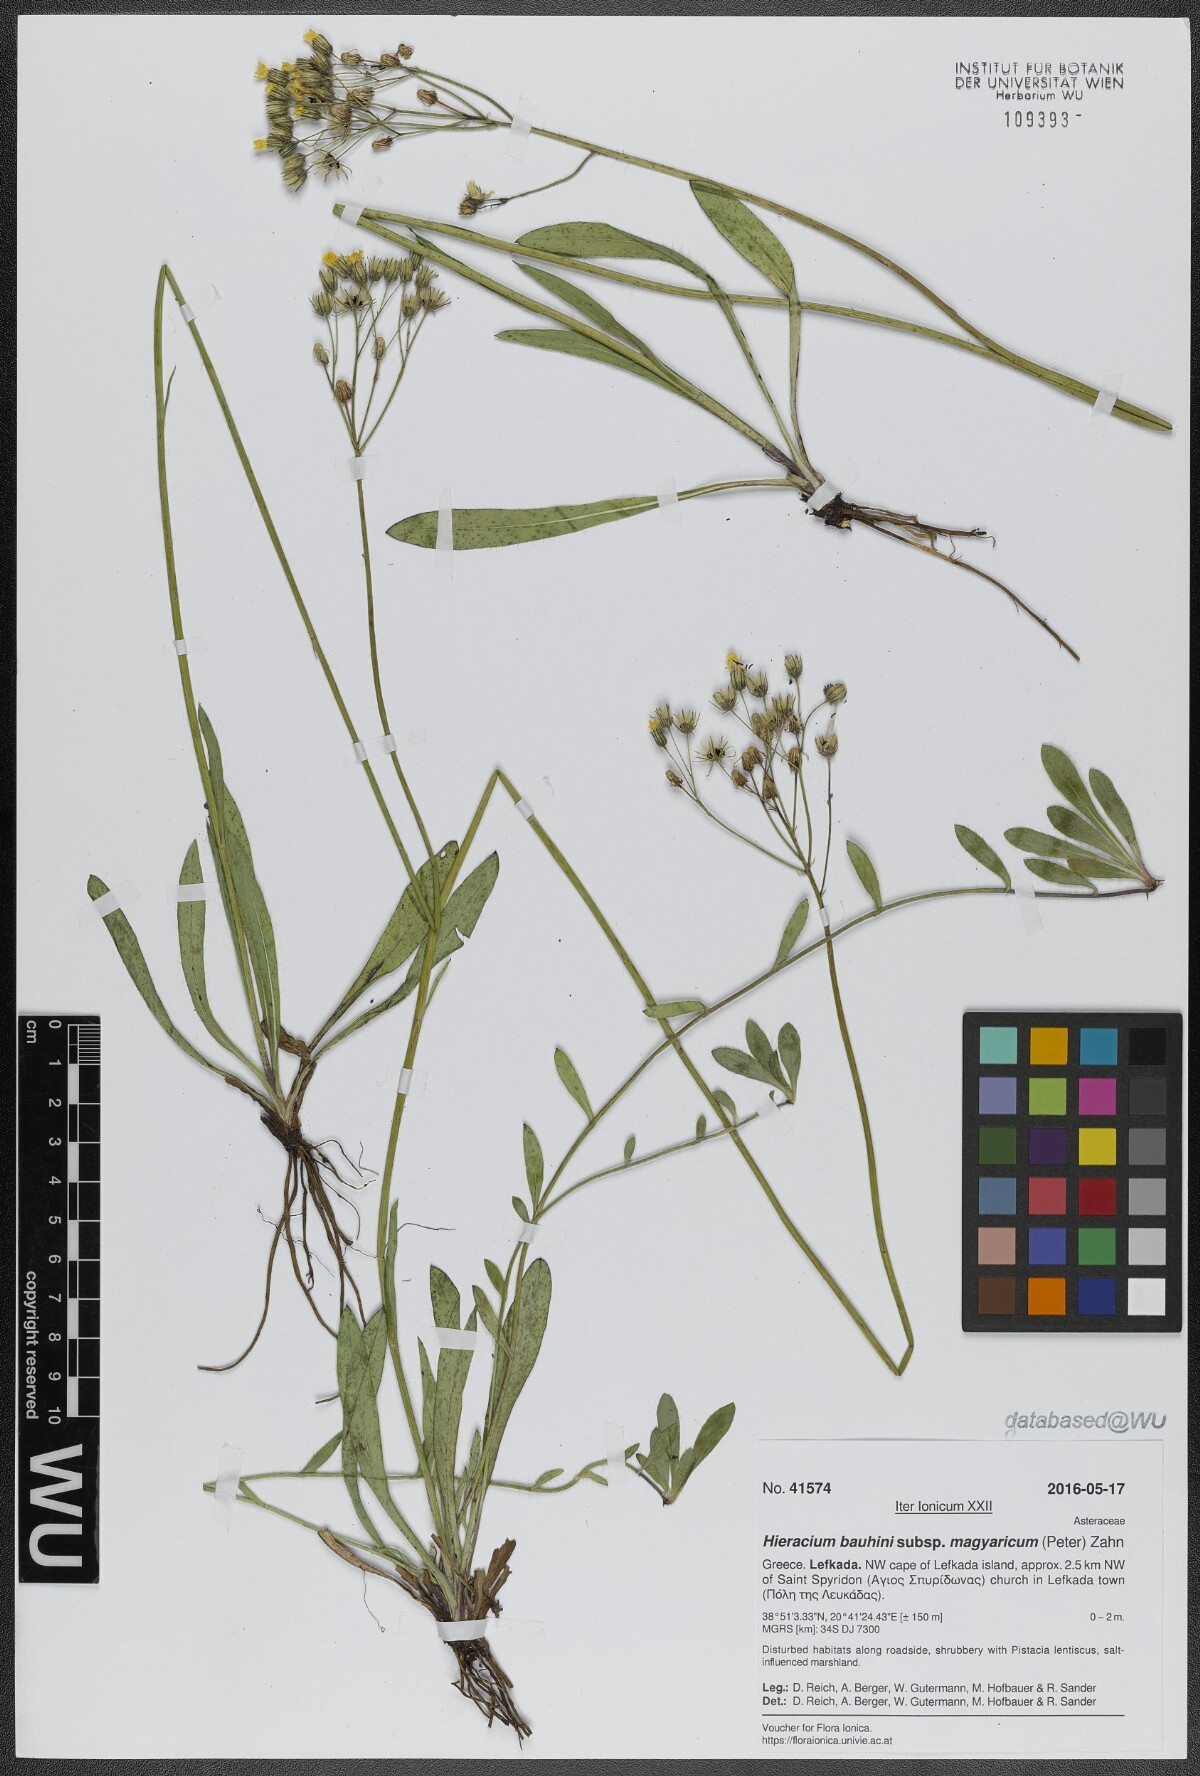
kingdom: Plantae
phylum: Tracheophyta
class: Magnoliopsida
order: Asterales
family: Asteraceae
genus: Pilosella
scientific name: Pilosella bauhini
